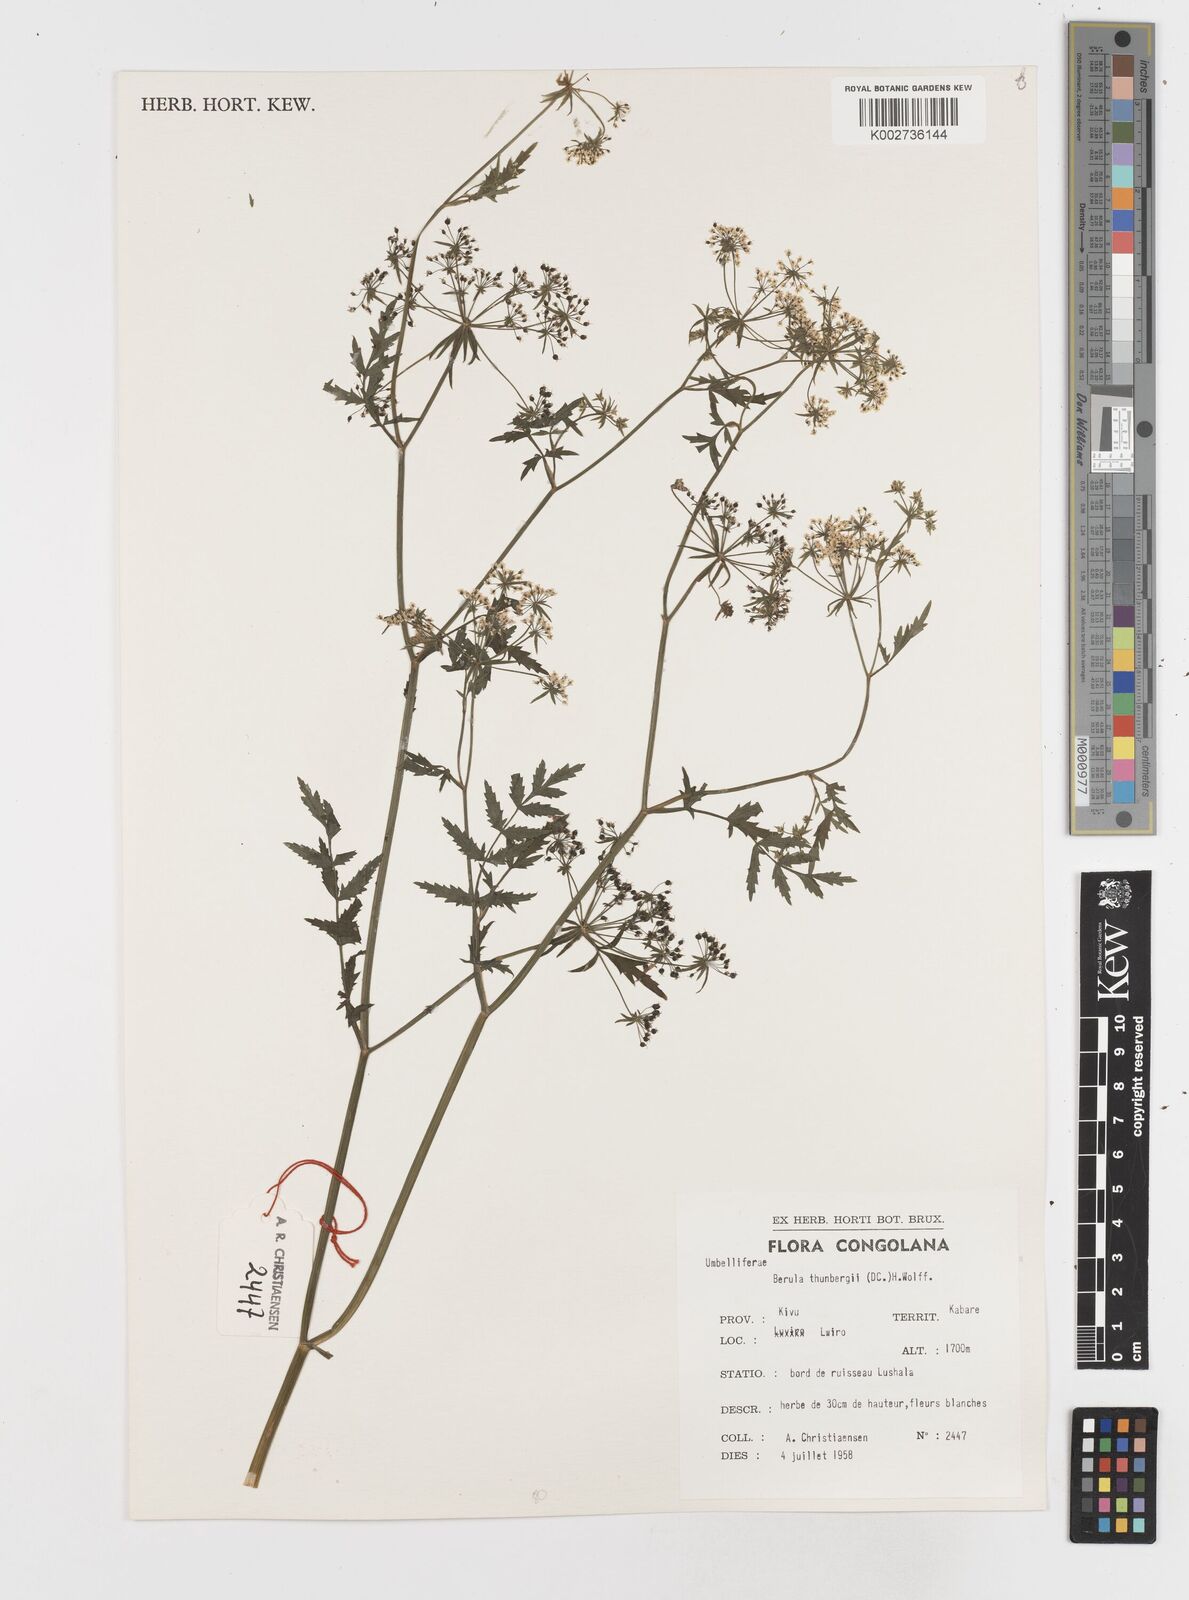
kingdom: Plantae
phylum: Tracheophyta
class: Magnoliopsida
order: Apiales
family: Apiaceae
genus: Berula
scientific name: Berula erecta
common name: Lesser water-parsnip
